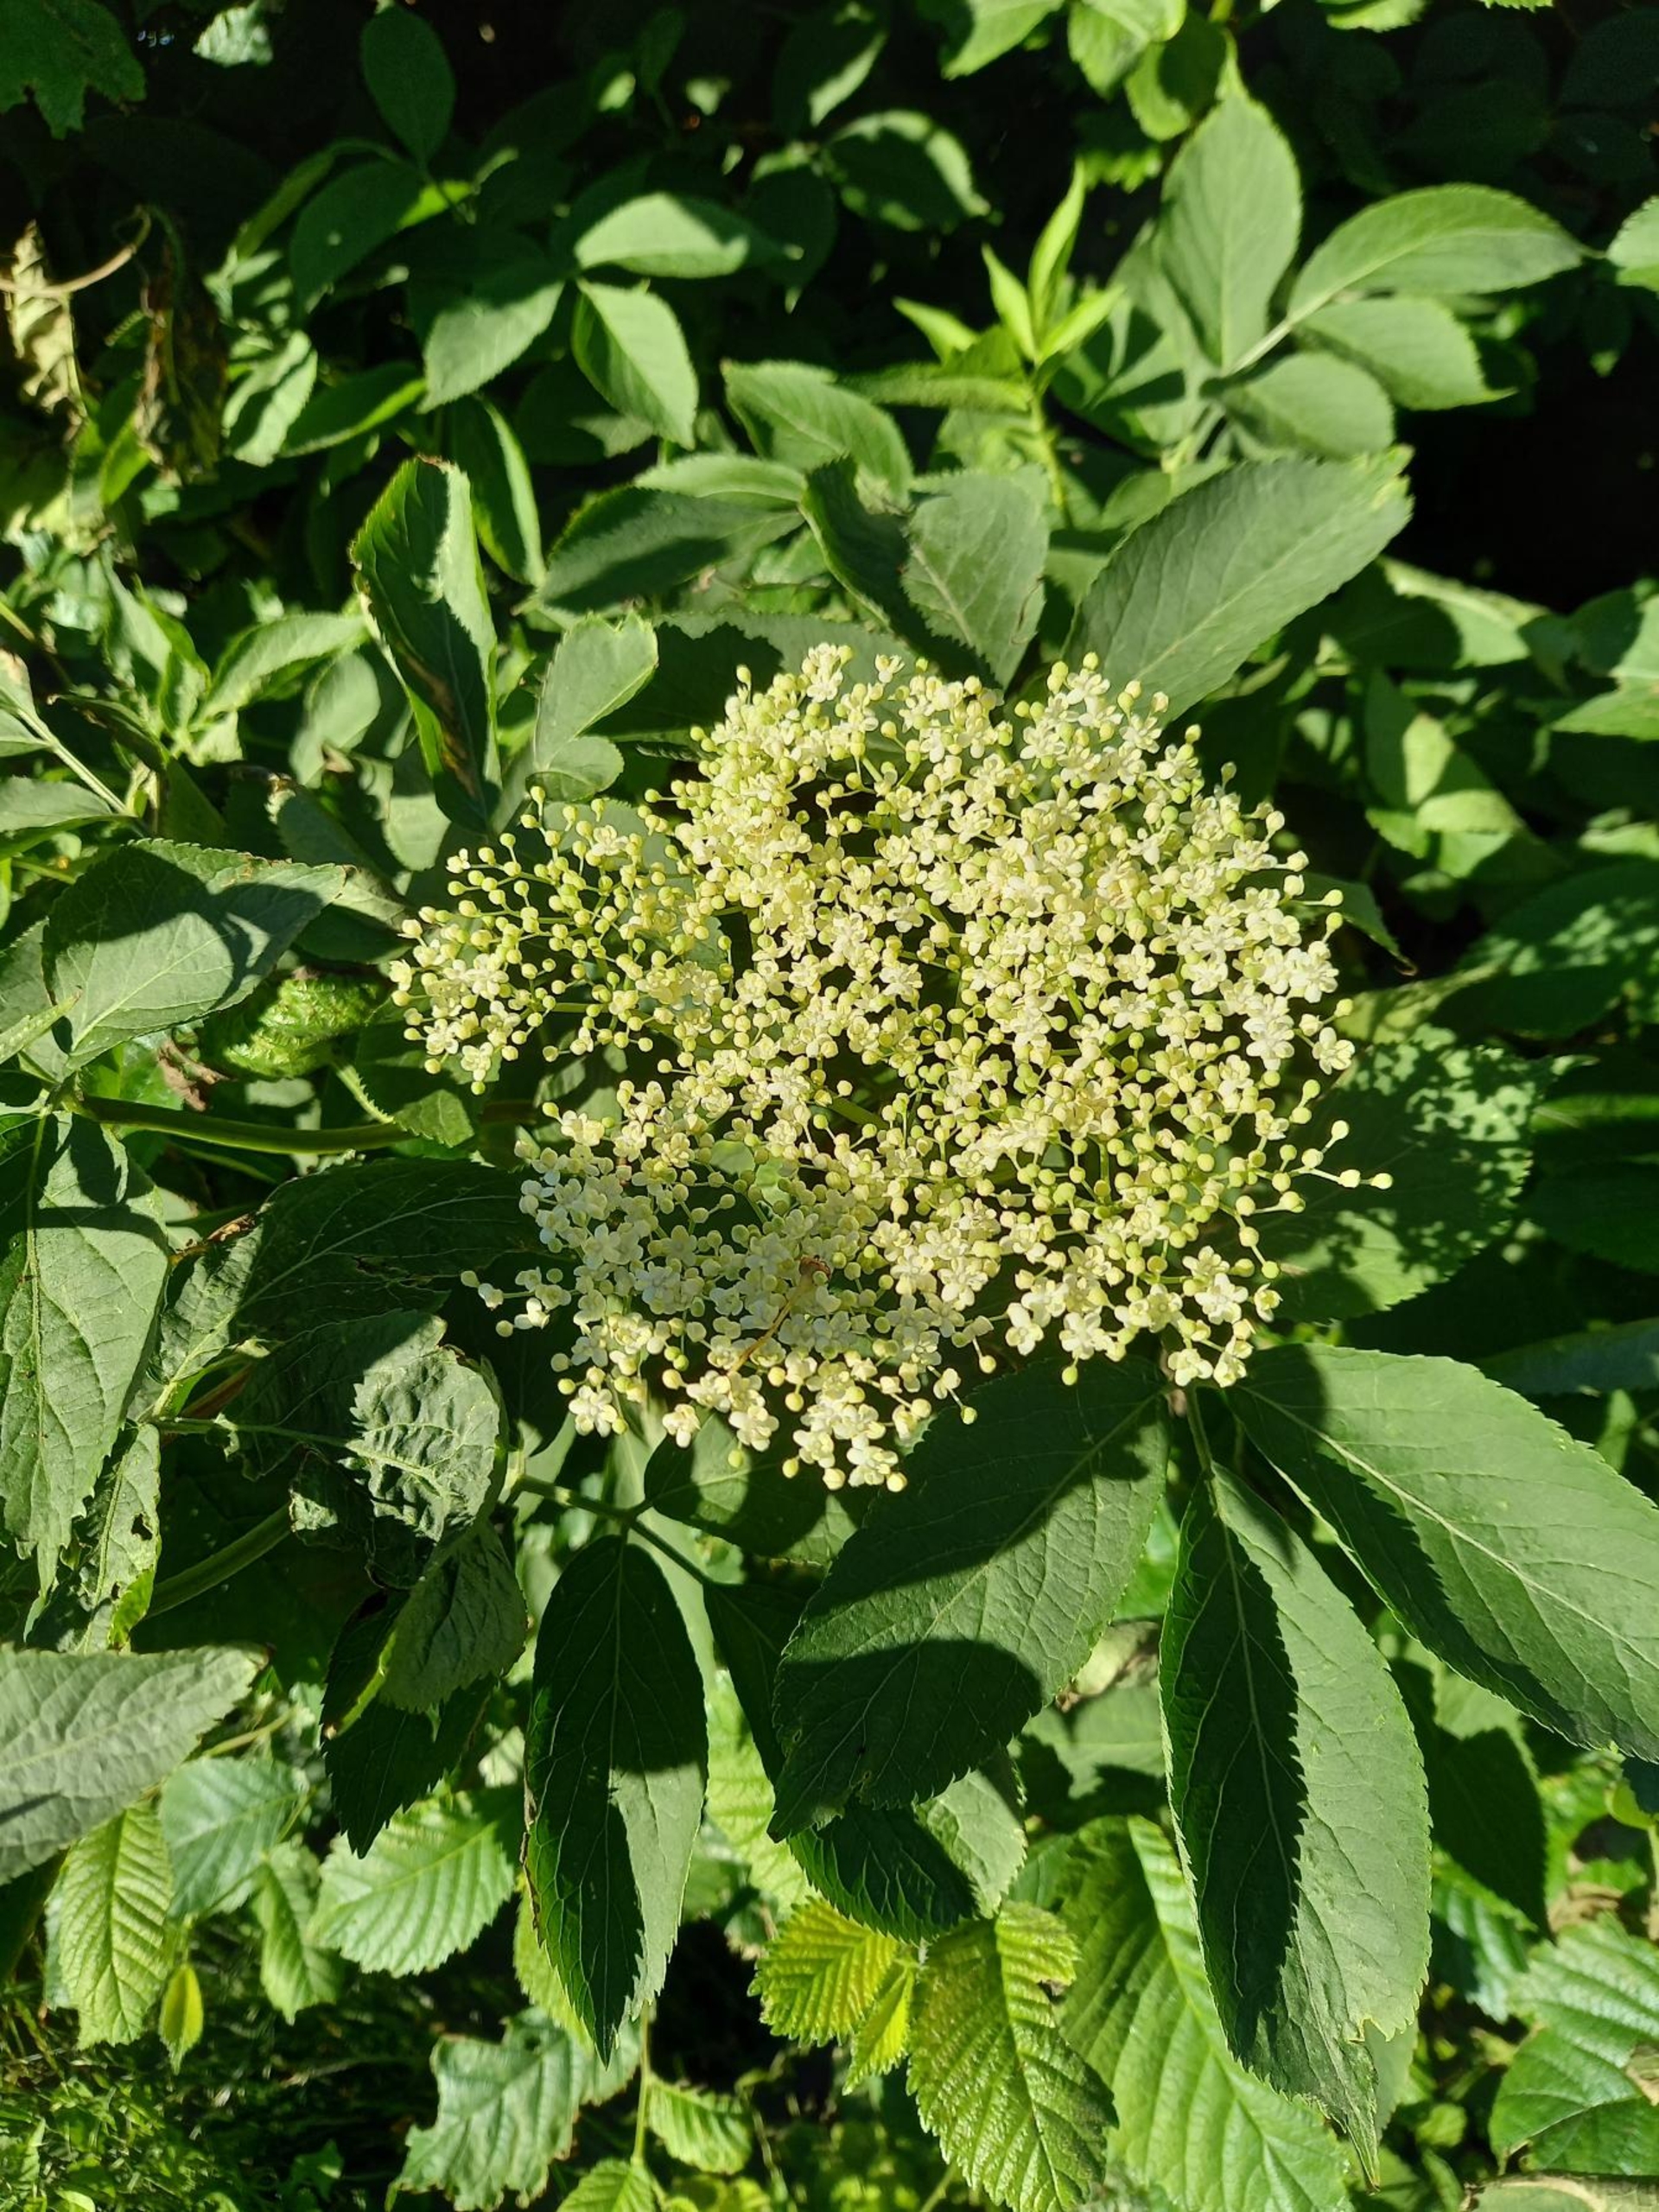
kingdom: Plantae
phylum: Tracheophyta
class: Magnoliopsida
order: Dipsacales
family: Viburnaceae
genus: Sambucus
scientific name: Sambucus nigra
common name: Almindelig hyld
